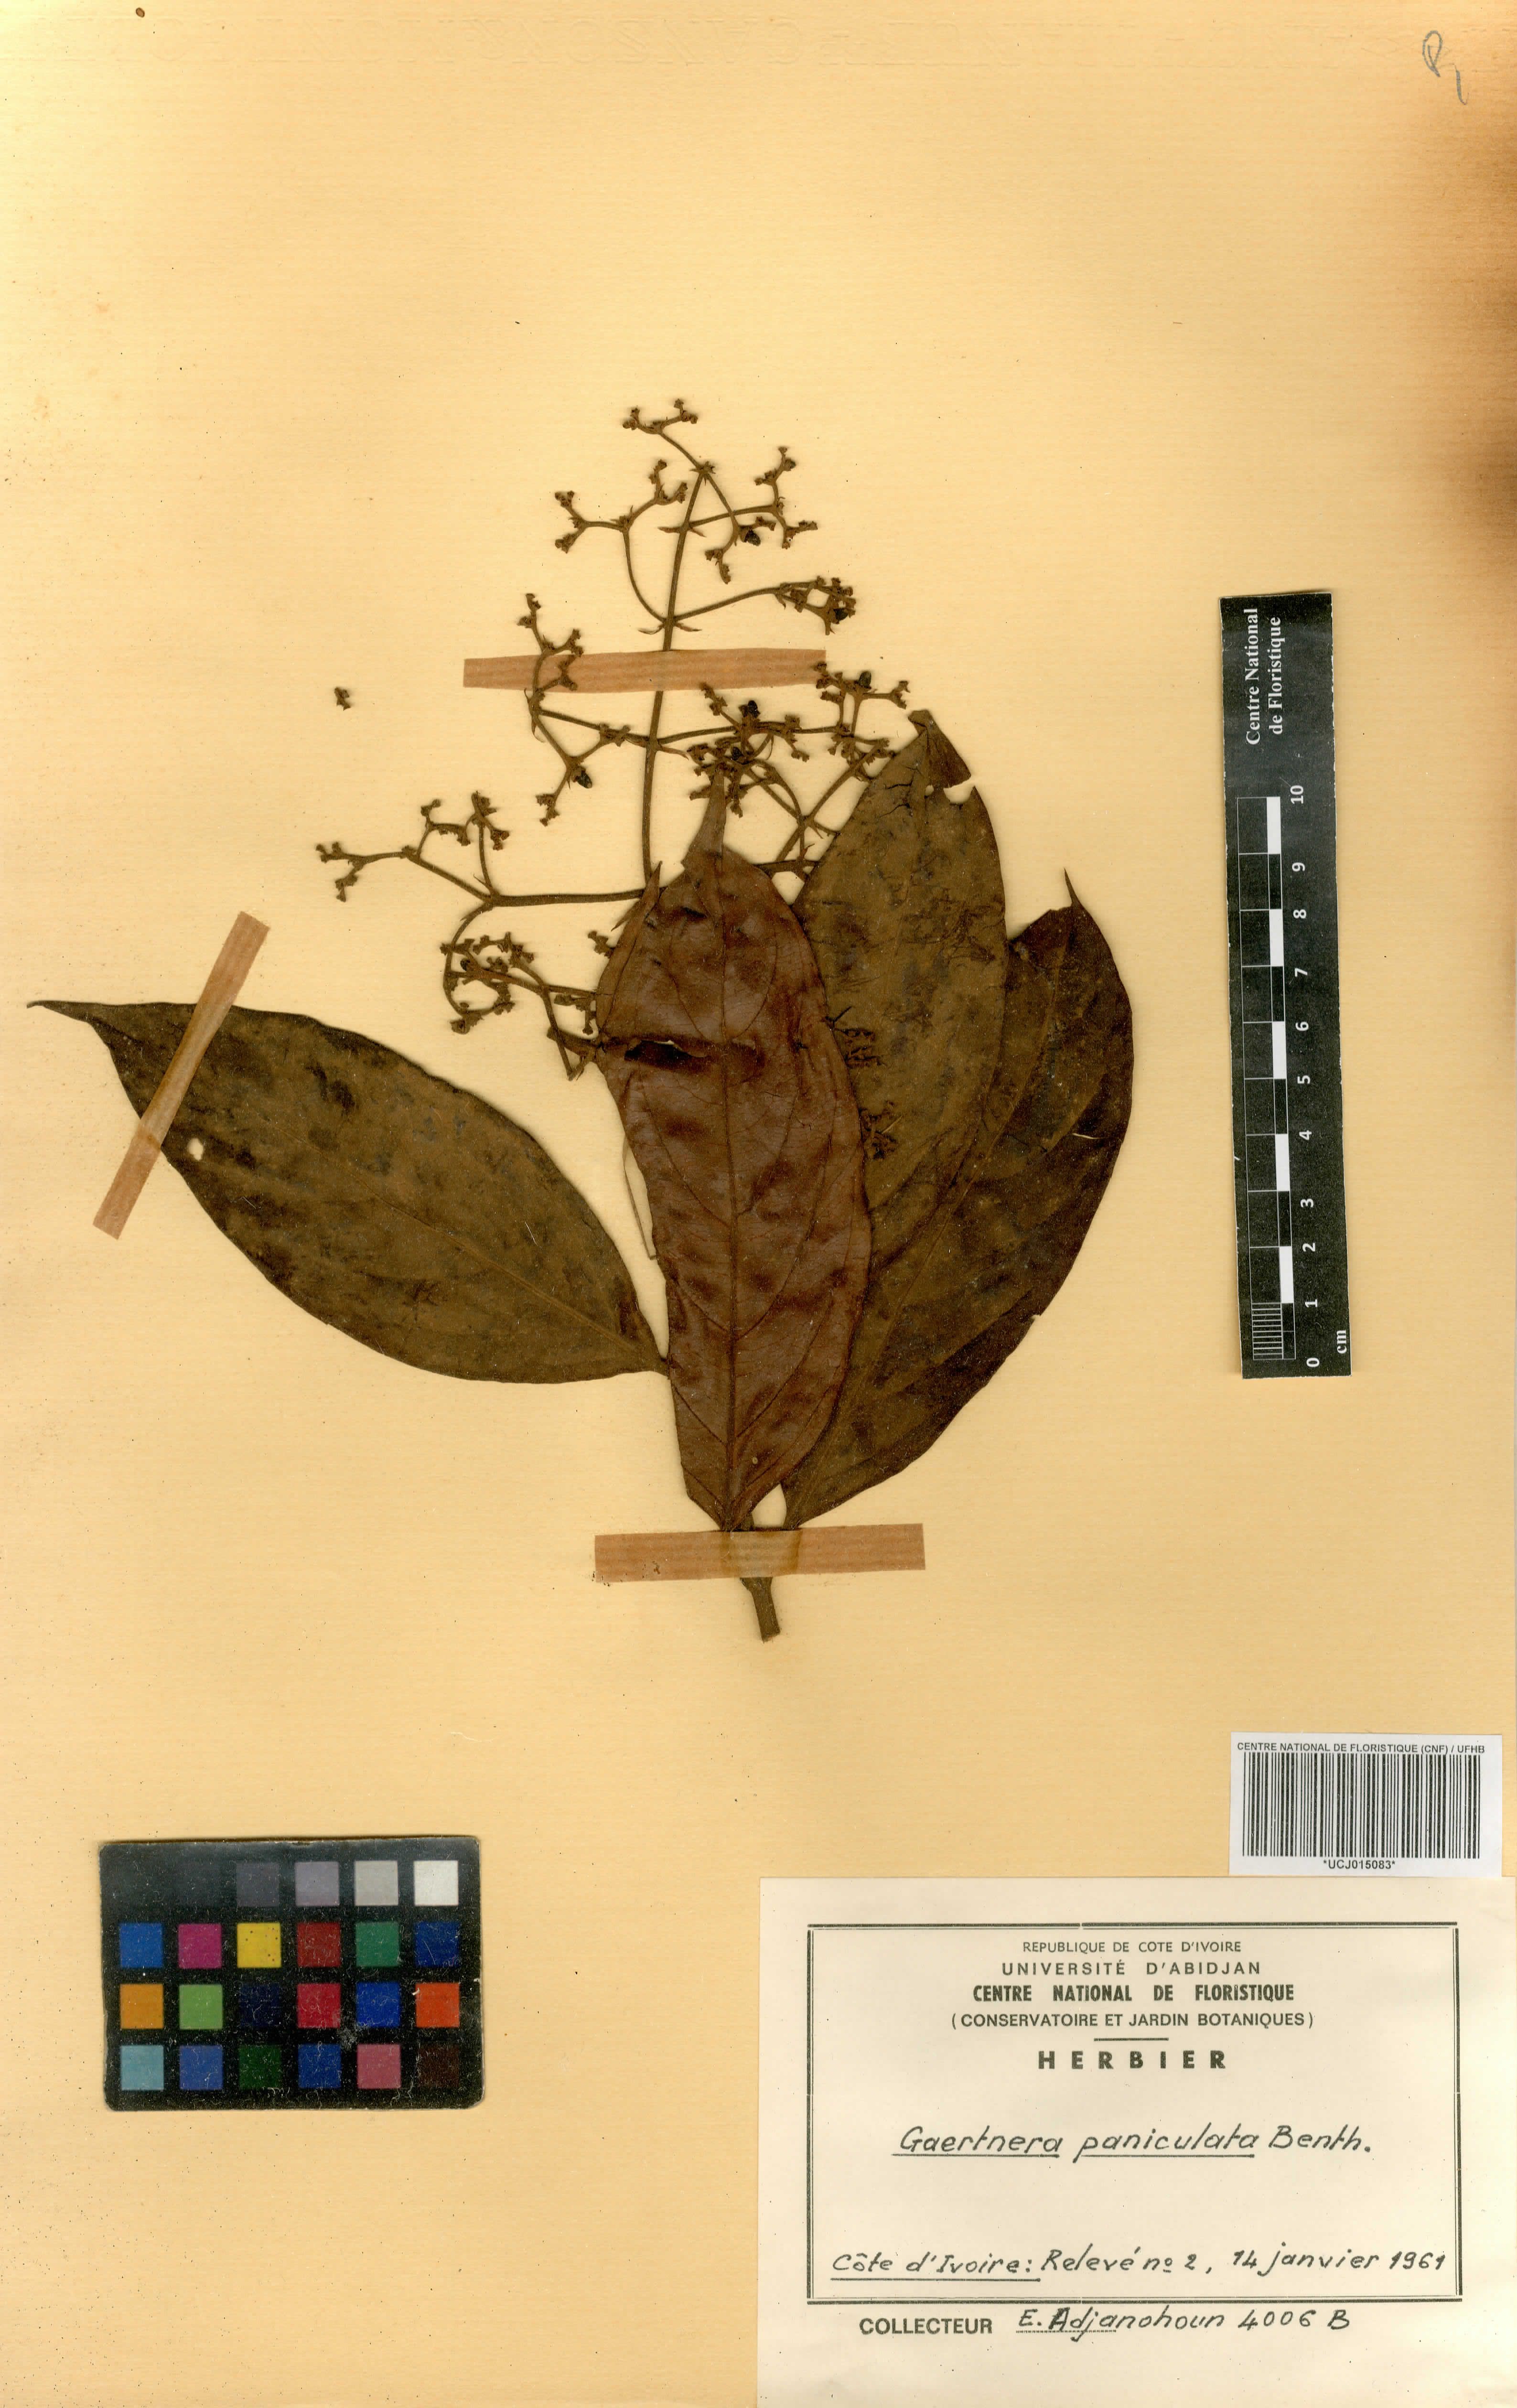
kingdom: Plantae
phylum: Tracheophyta
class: Magnoliopsida
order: Gentianales
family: Rubiaceae
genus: Gaertnera
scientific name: Gaertnera paniculata
